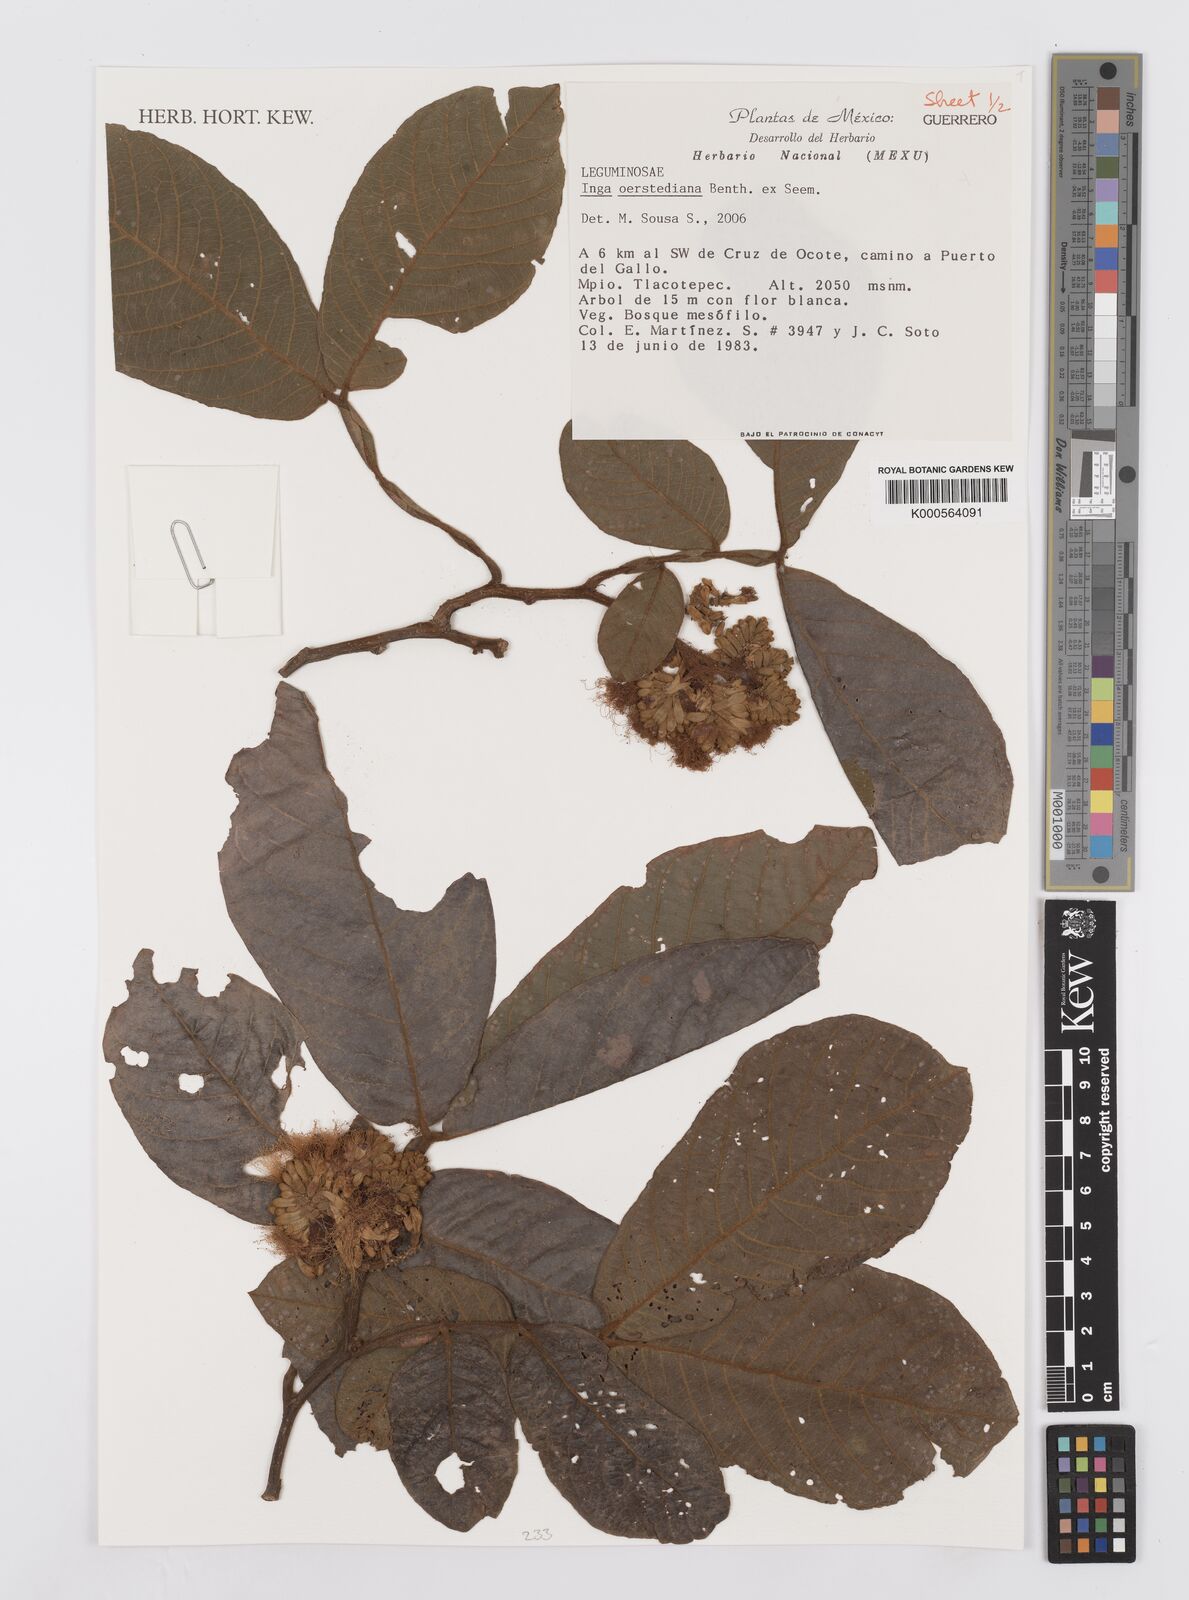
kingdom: Plantae
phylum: Tracheophyta
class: Magnoliopsida
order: Fabales
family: Fabaceae
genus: Inga
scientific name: Inga oerstediana
